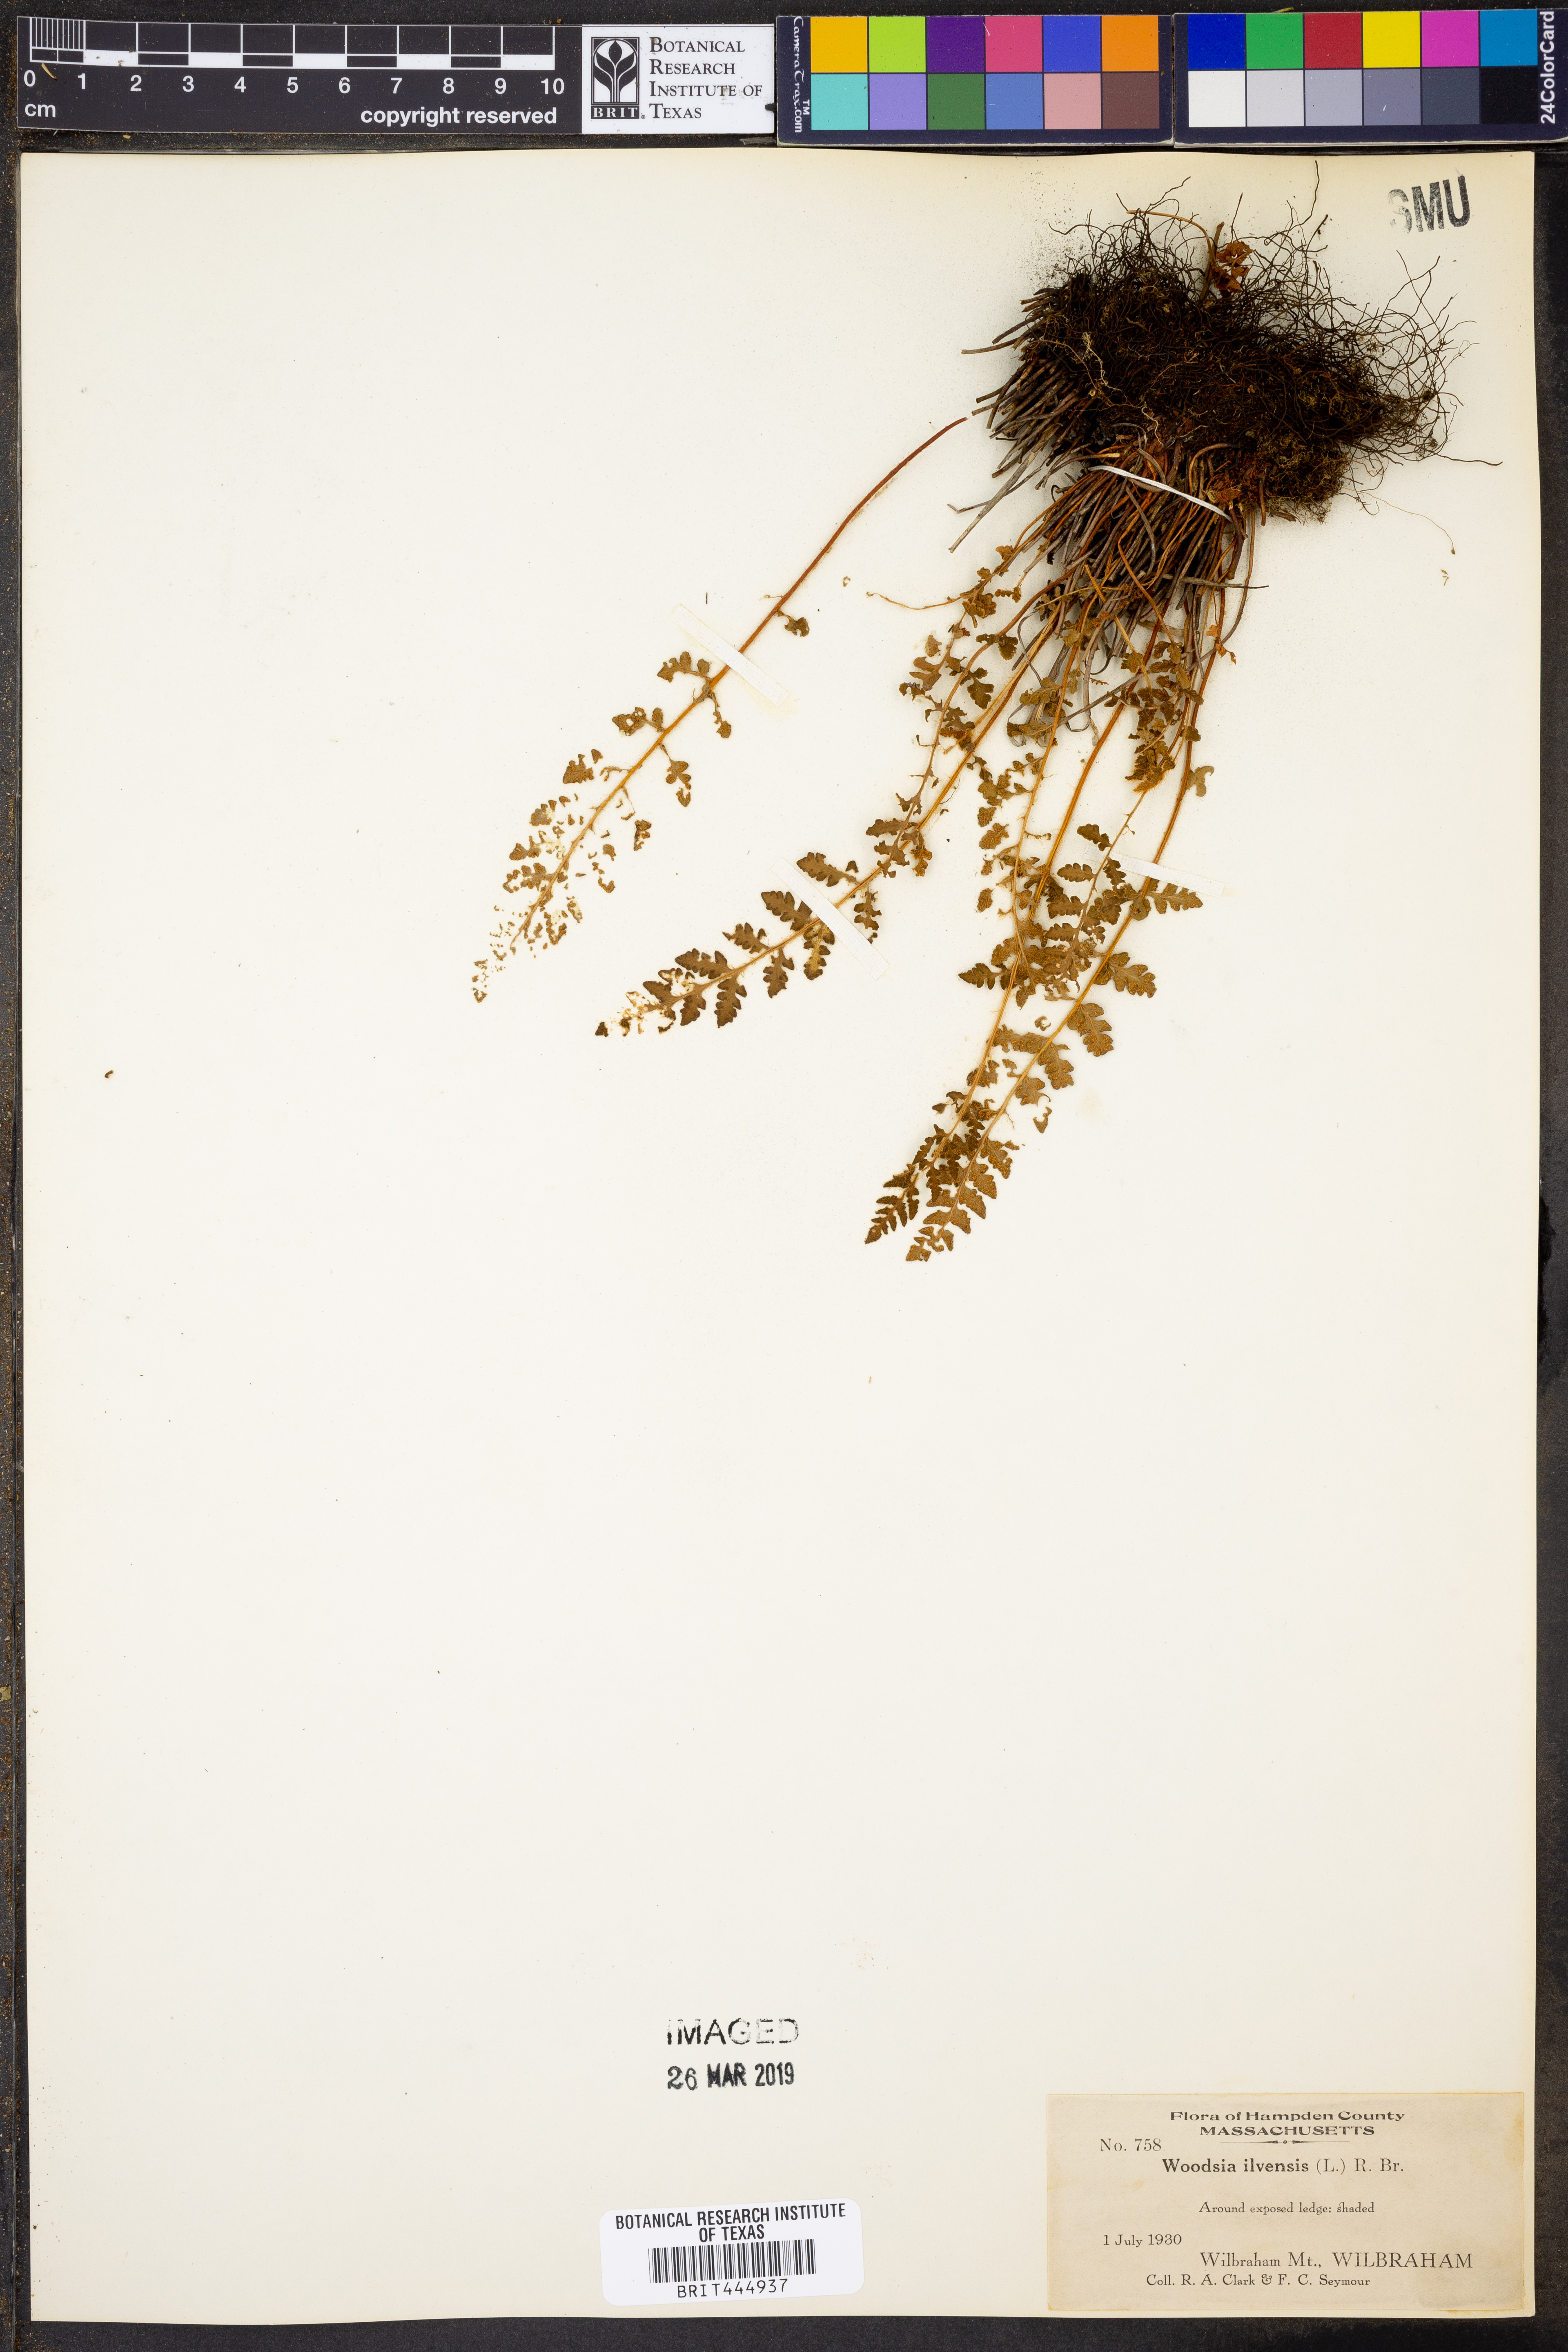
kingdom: Plantae
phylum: Tracheophyta
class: Polypodiopsida
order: Polypodiales
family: Woodsiaceae
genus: Woodsia
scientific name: Woodsia ilvensis
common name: Fragrant woodsia
